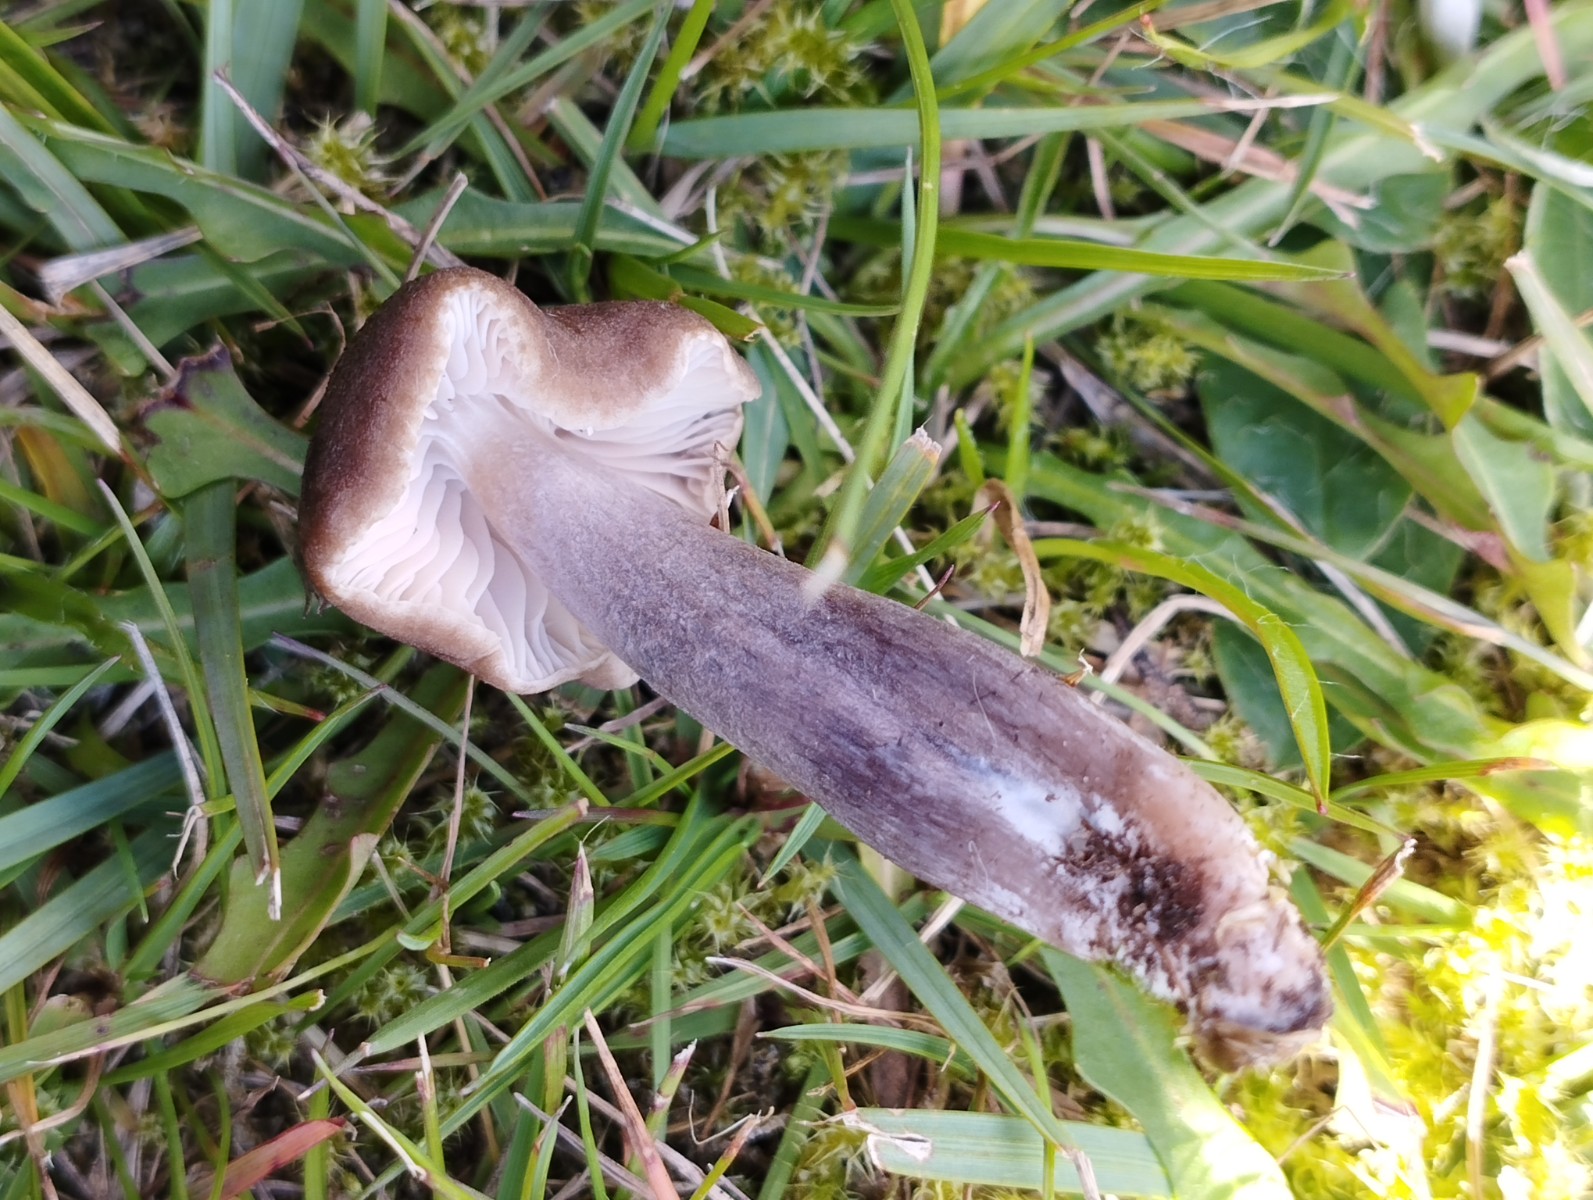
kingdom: Fungi
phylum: Basidiomycota
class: Agaricomycetes
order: Agaricales
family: Entolomataceae
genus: Entoloma
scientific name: Entoloma
